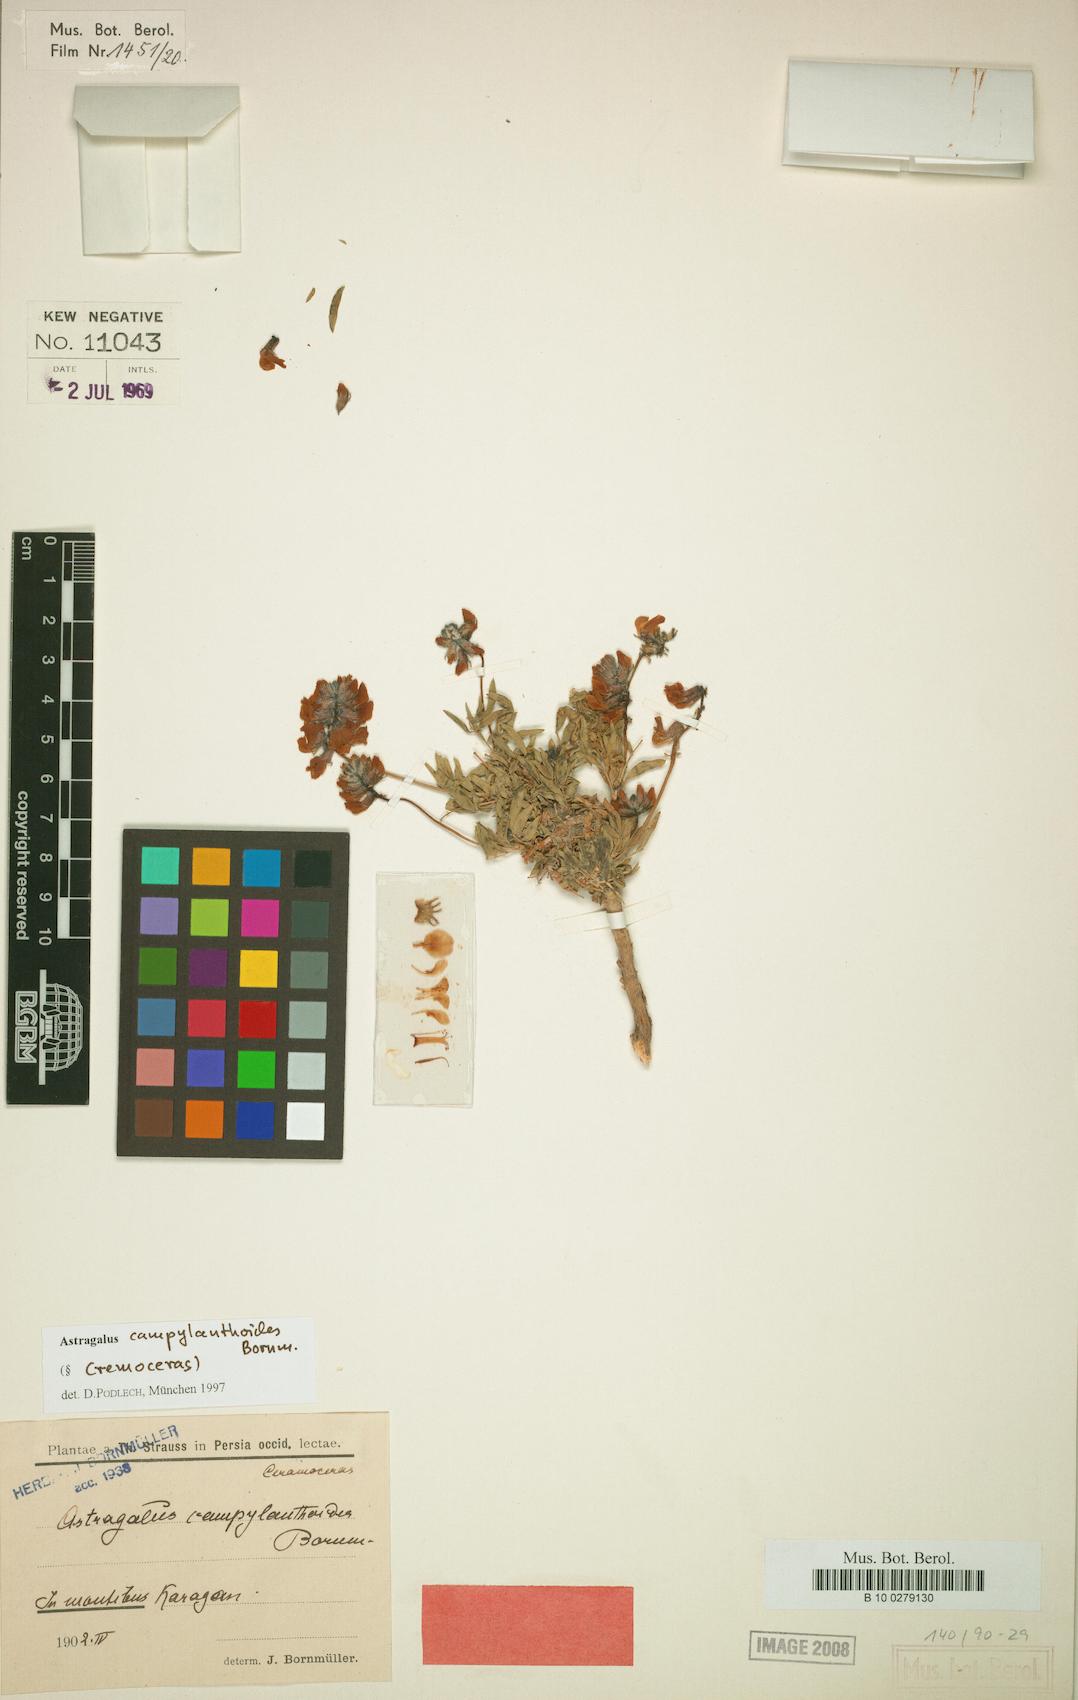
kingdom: Plantae
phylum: Tracheophyta
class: Magnoliopsida
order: Fabales
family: Fabaceae
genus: Astragalus
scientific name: Astragalus campylanthoides
